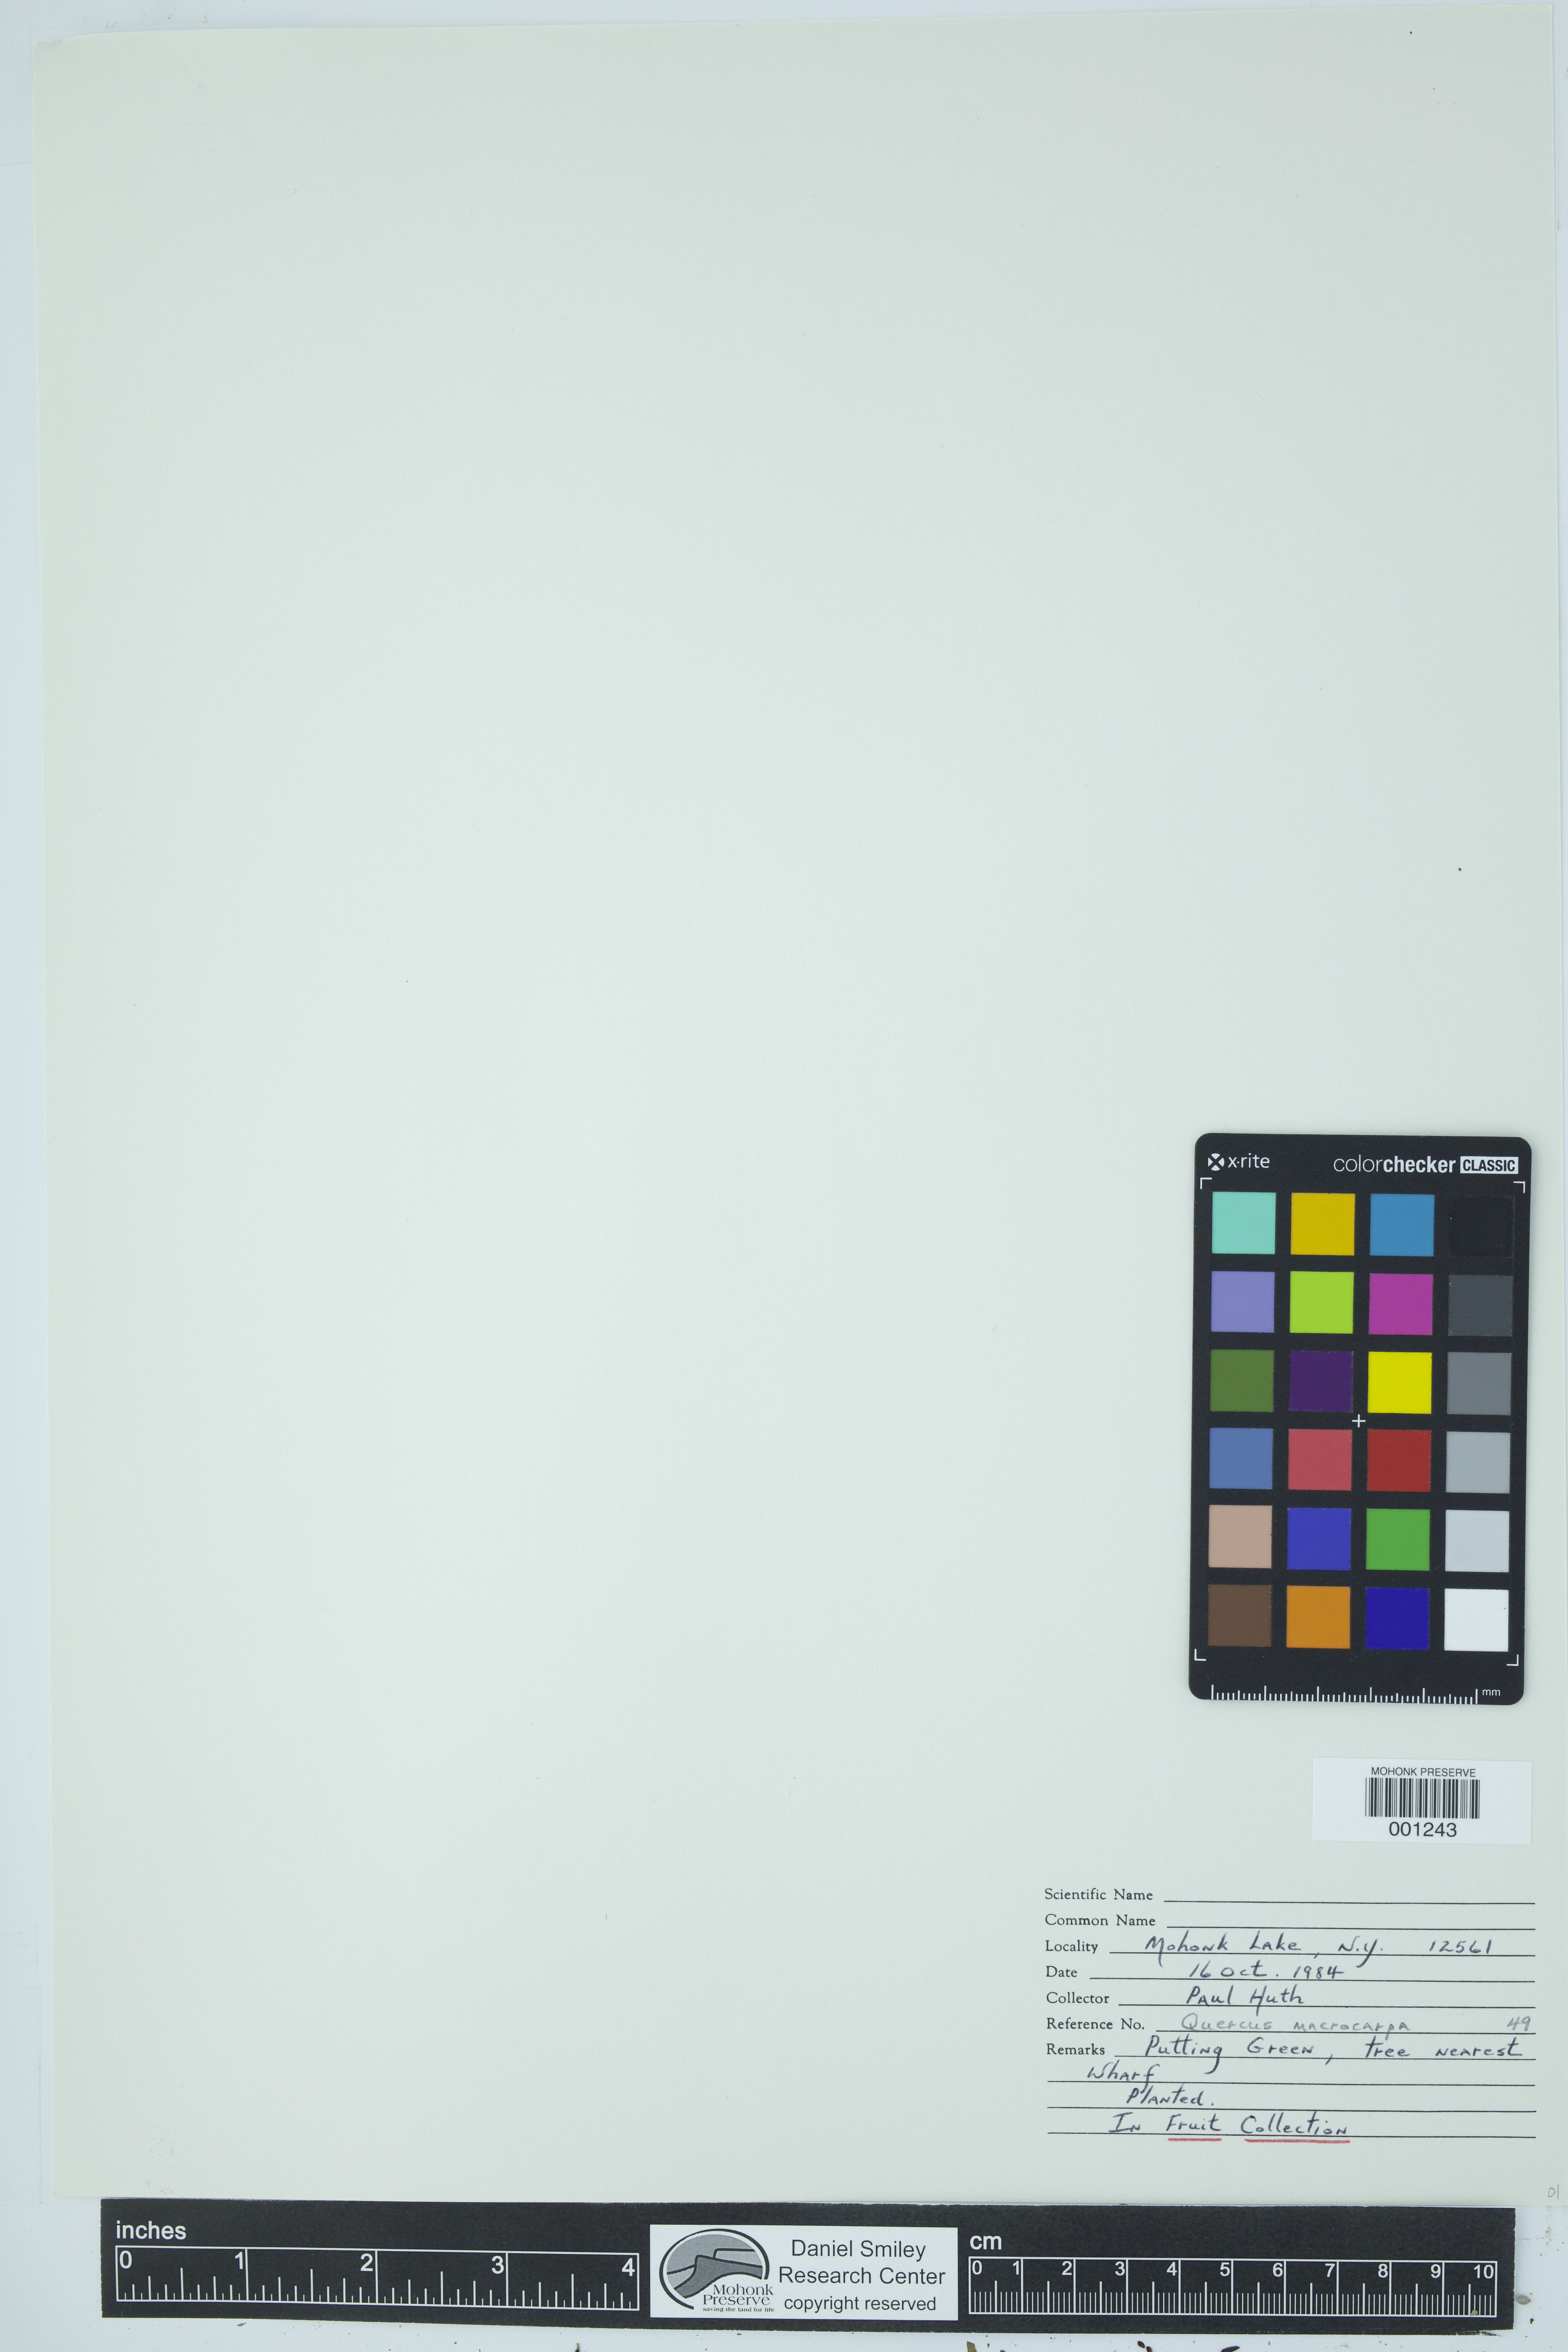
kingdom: Plantae
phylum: Tracheophyta
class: Magnoliopsida
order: Fagales
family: Fagaceae
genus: Quercus
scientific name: Quercus macrocarpa
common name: Bur oak
